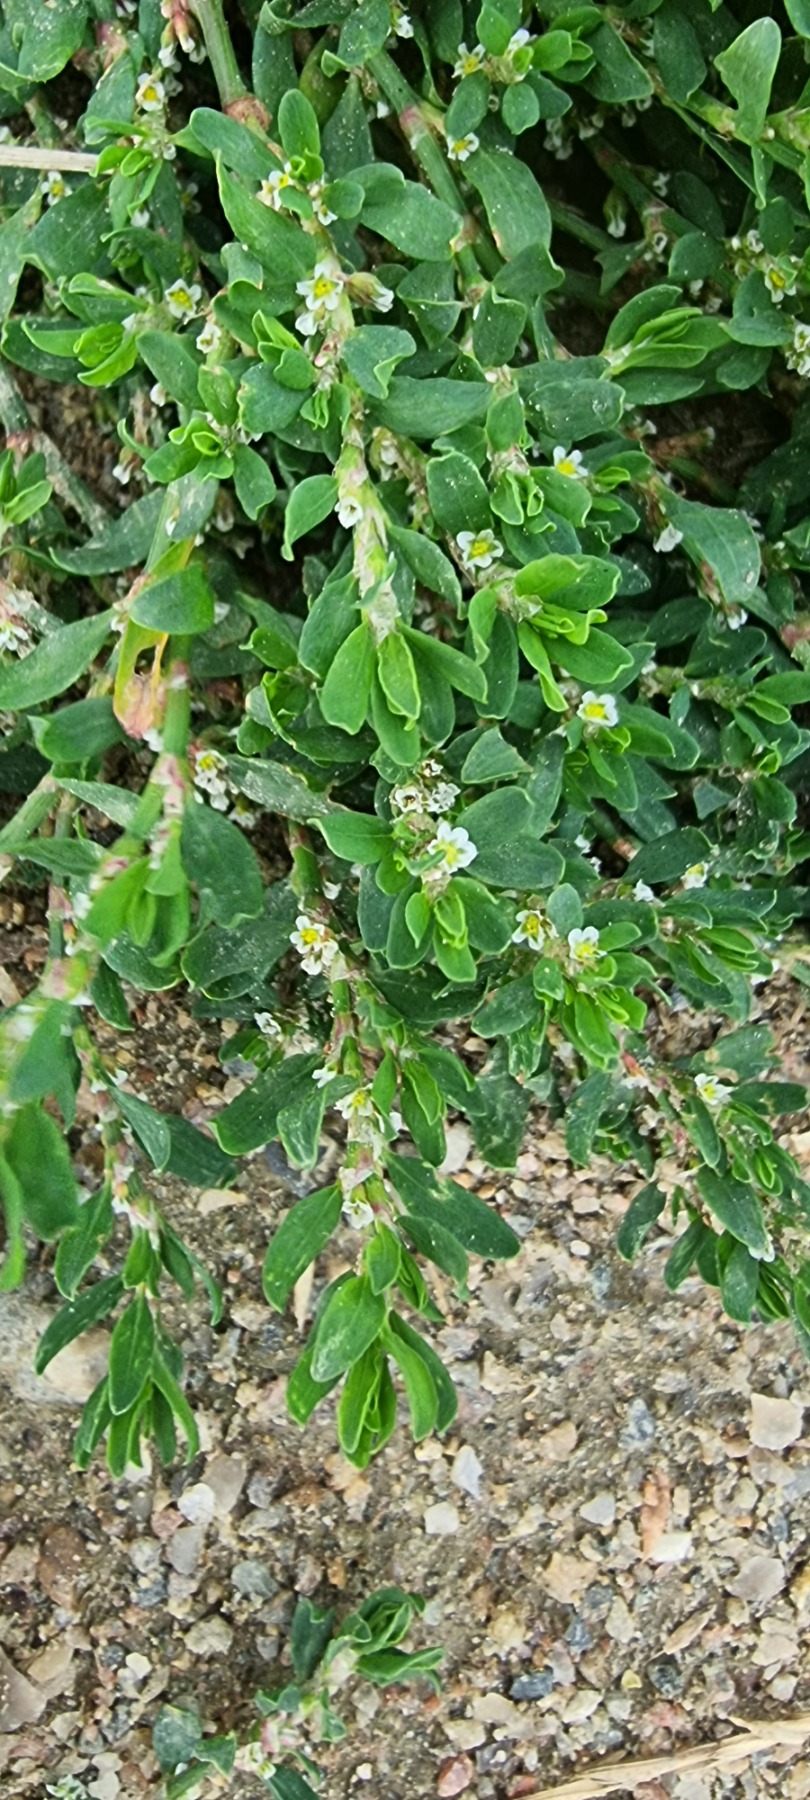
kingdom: Plantae
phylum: Tracheophyta
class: Magnoliopsida
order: Caryophyllales
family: Polygonaceae
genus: Polygonum
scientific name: Polygonum arenastrum
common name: Liggende vej-pileurt
